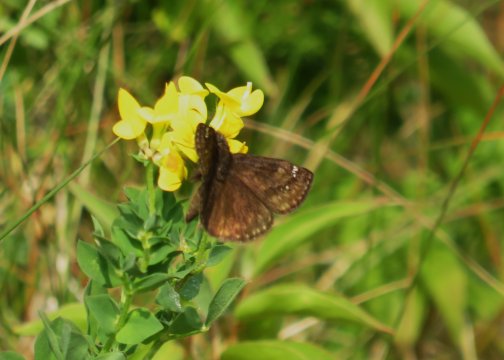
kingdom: Animalia
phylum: Arthropoda
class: Insecta
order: Lepidoptera
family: Hesperiidae
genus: Gesta
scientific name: Gesta
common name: Juvenal's Duskywing
